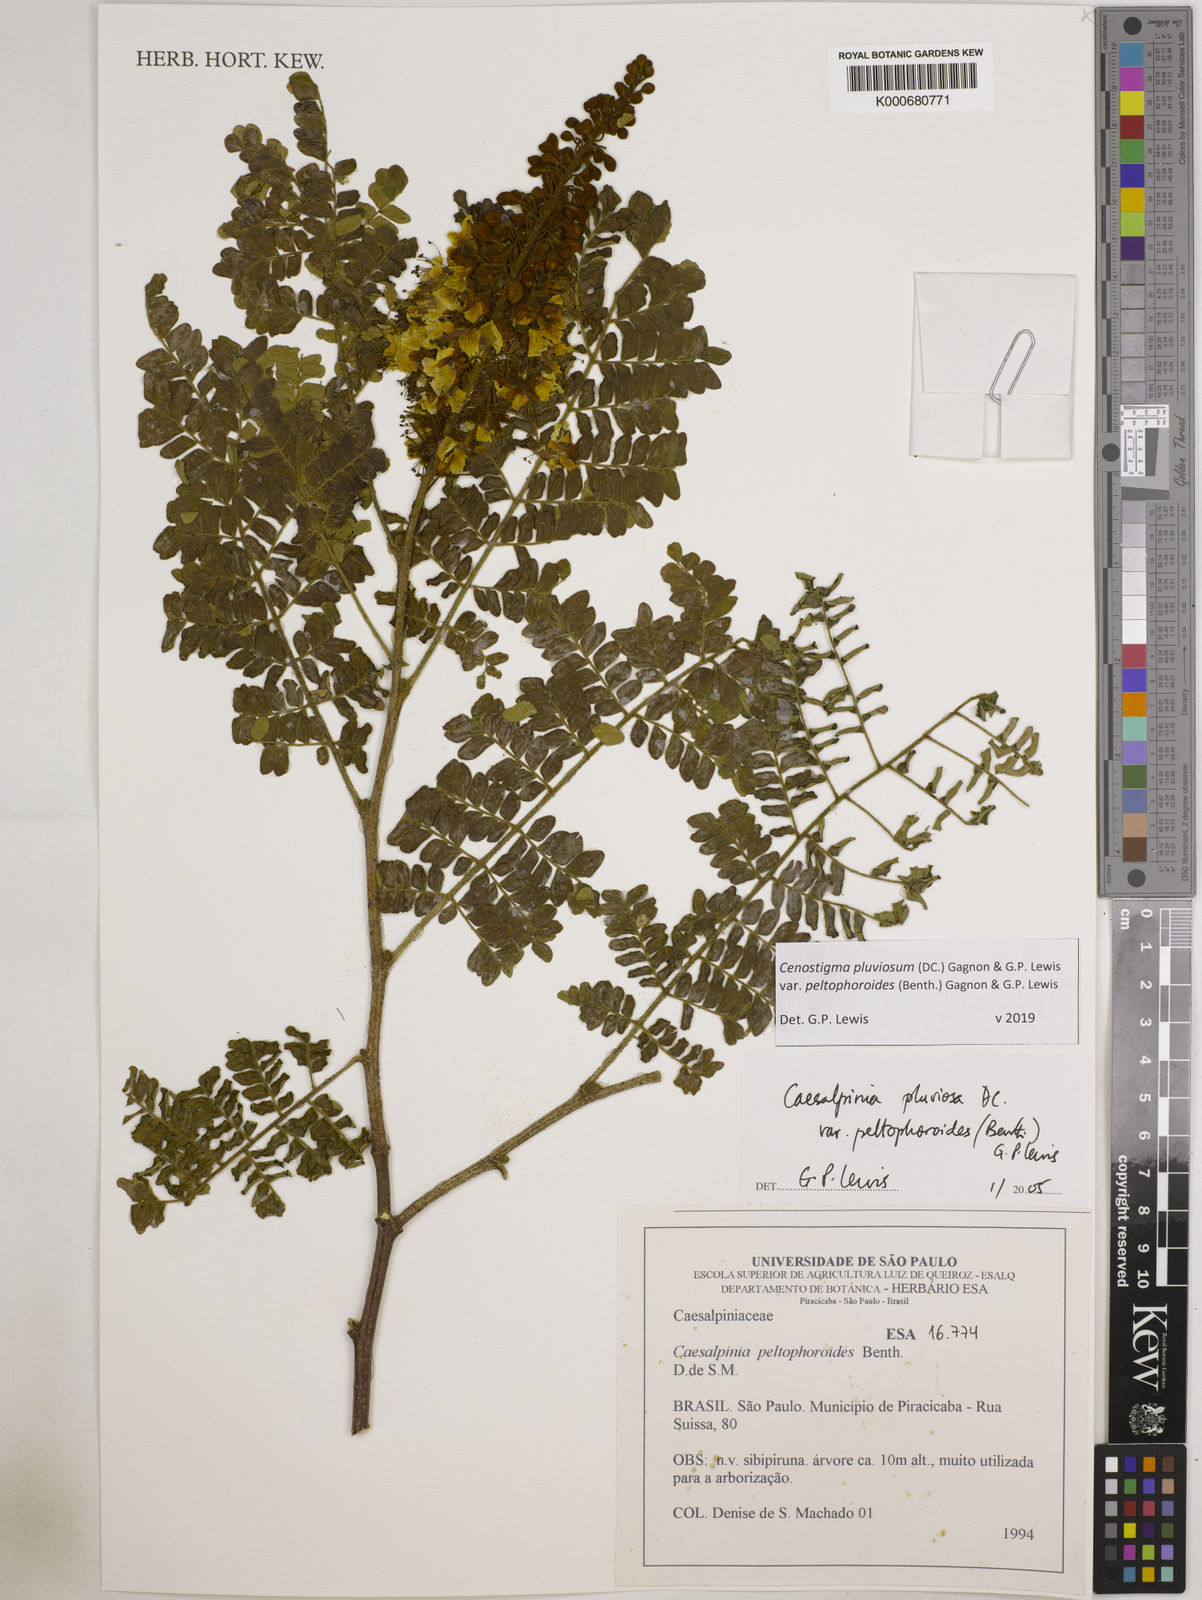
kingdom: Plantae
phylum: Tracheophyta
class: Magnoliopsida
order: Fabales
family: Fabaceae
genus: Cenostigma
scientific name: Cenostigma pluviosum
